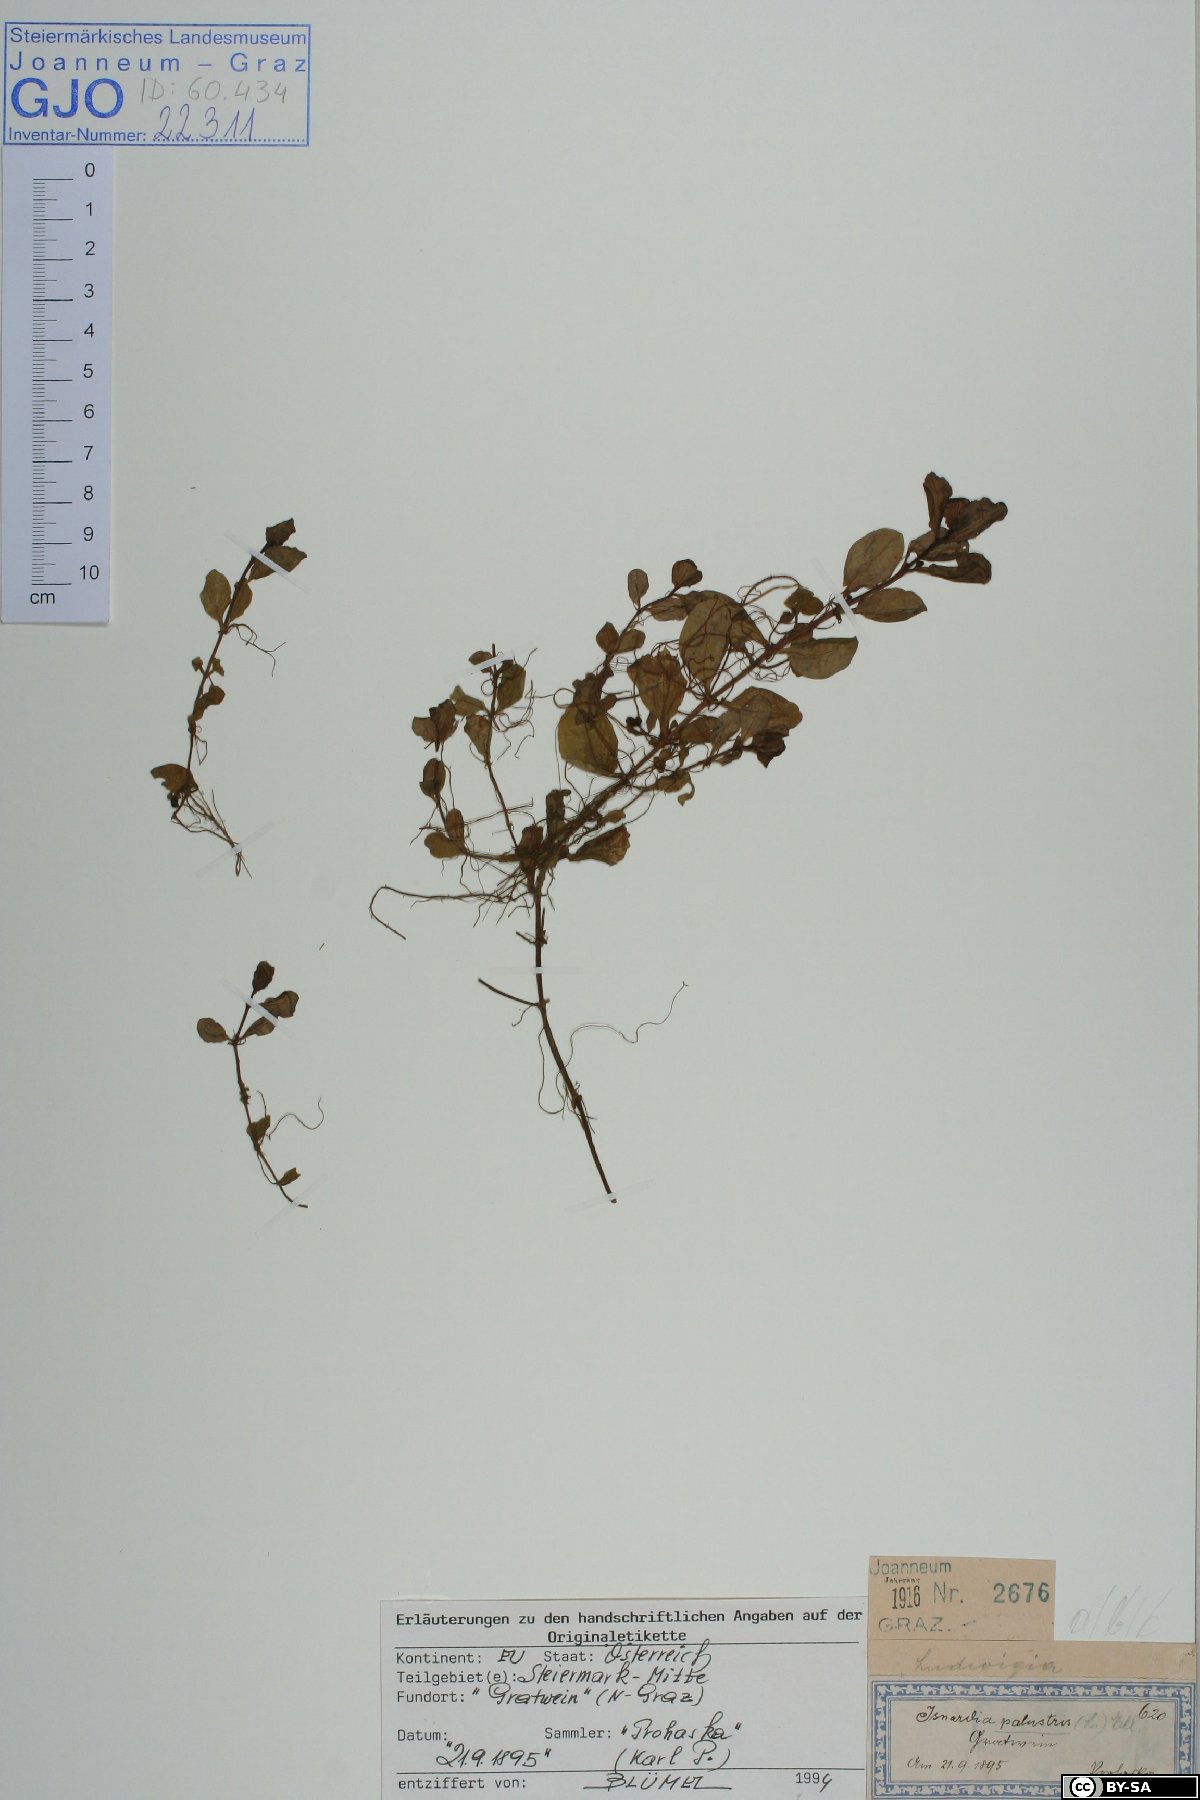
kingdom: Plantae
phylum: Tracheophyta
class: Magnoliopsida
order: Myrtales
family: Onagraceae
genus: Ludwigia
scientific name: Ludwigia palustris
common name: Hampshire-purslane
